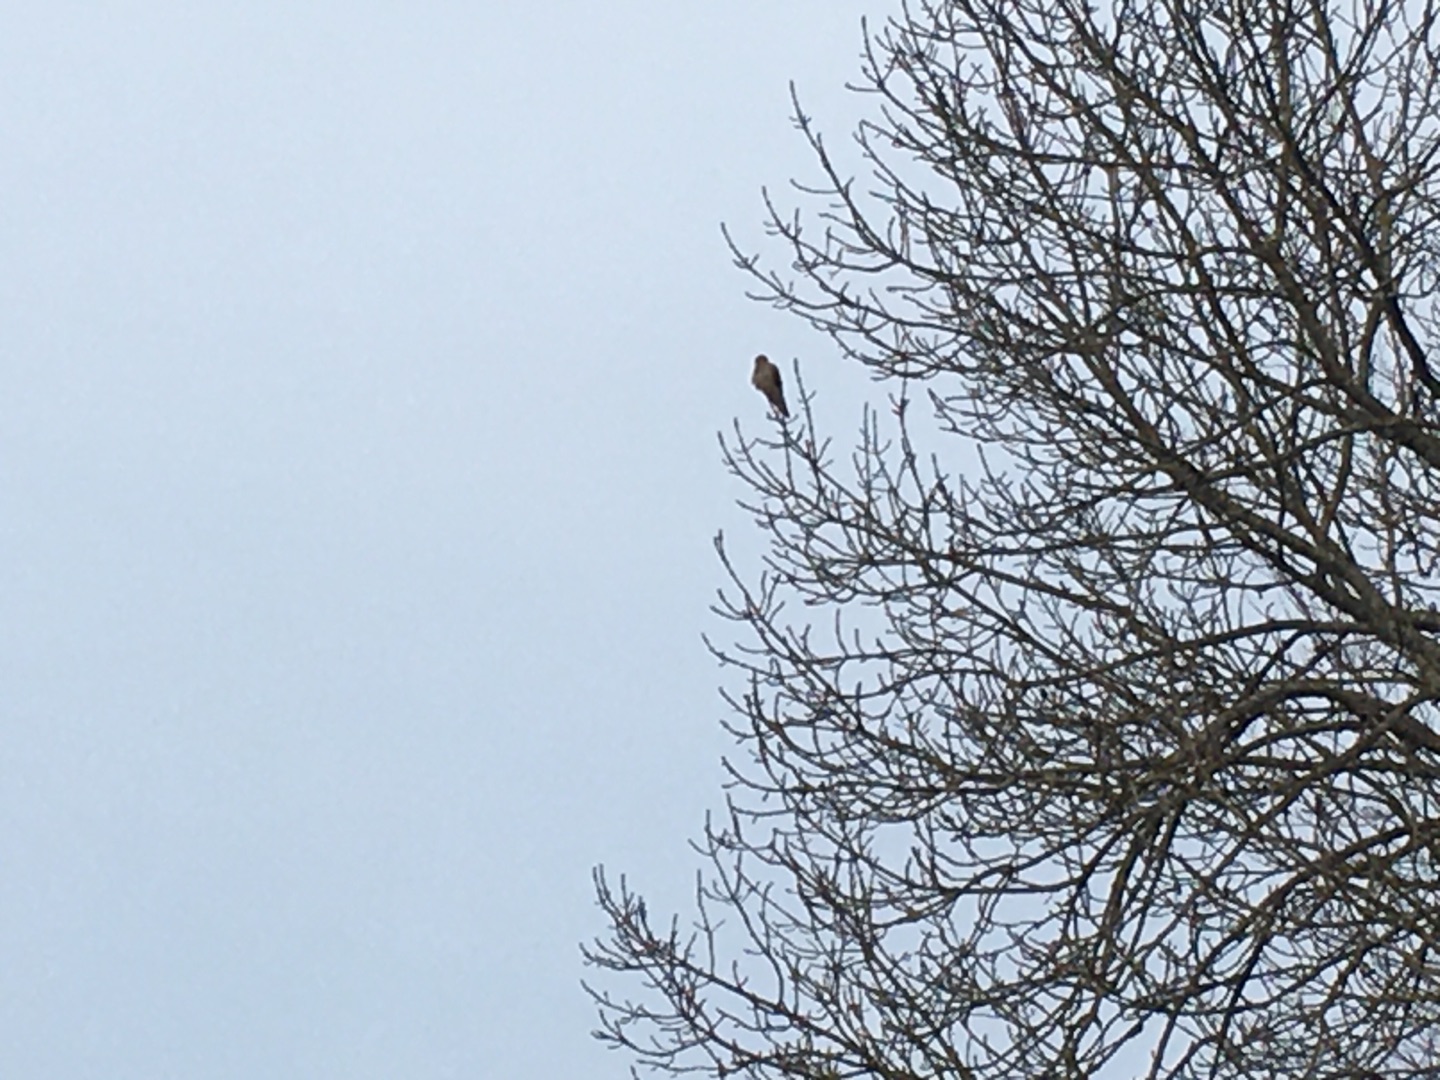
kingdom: Animalia
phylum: Chordata
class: Aves
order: Falconiformes
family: Falconidae
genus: Falco
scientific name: Falco tinnunculus
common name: Tårnfalk
